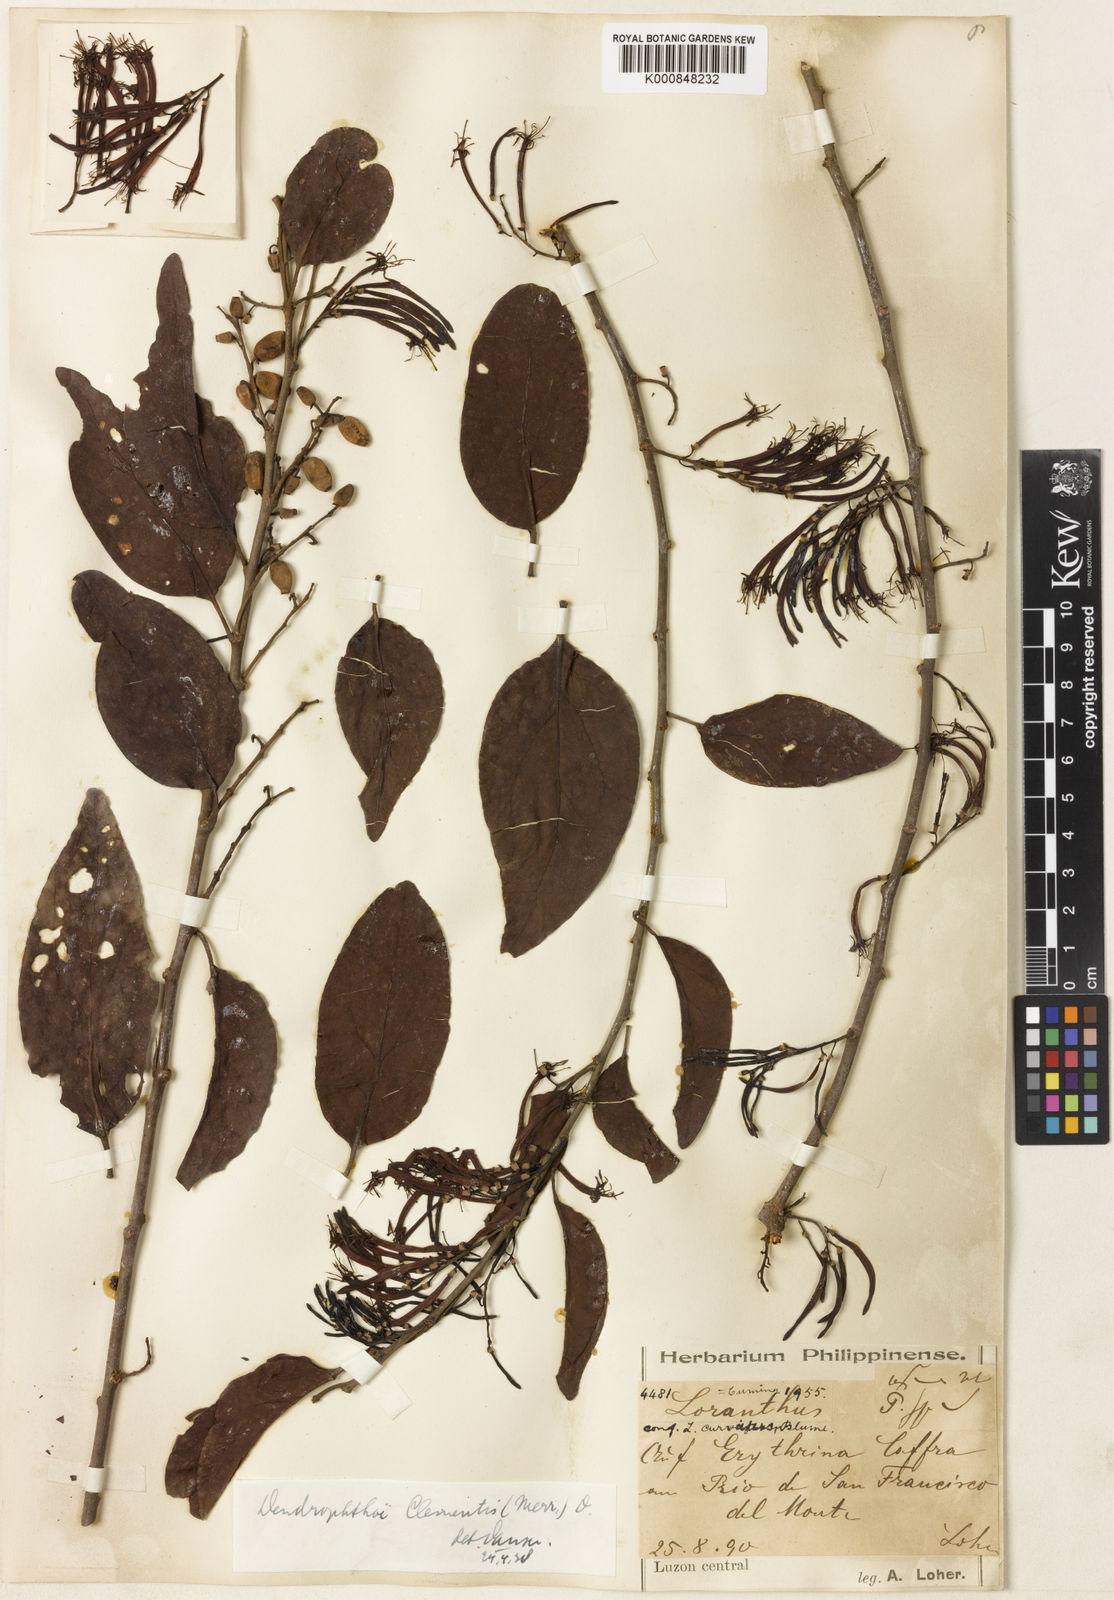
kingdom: Plantae
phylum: Tracheophyta
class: Magnoliopsida
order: Santalales
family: Loranthaceae
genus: Dendrophthoe
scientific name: Dendrophthoe clementis
